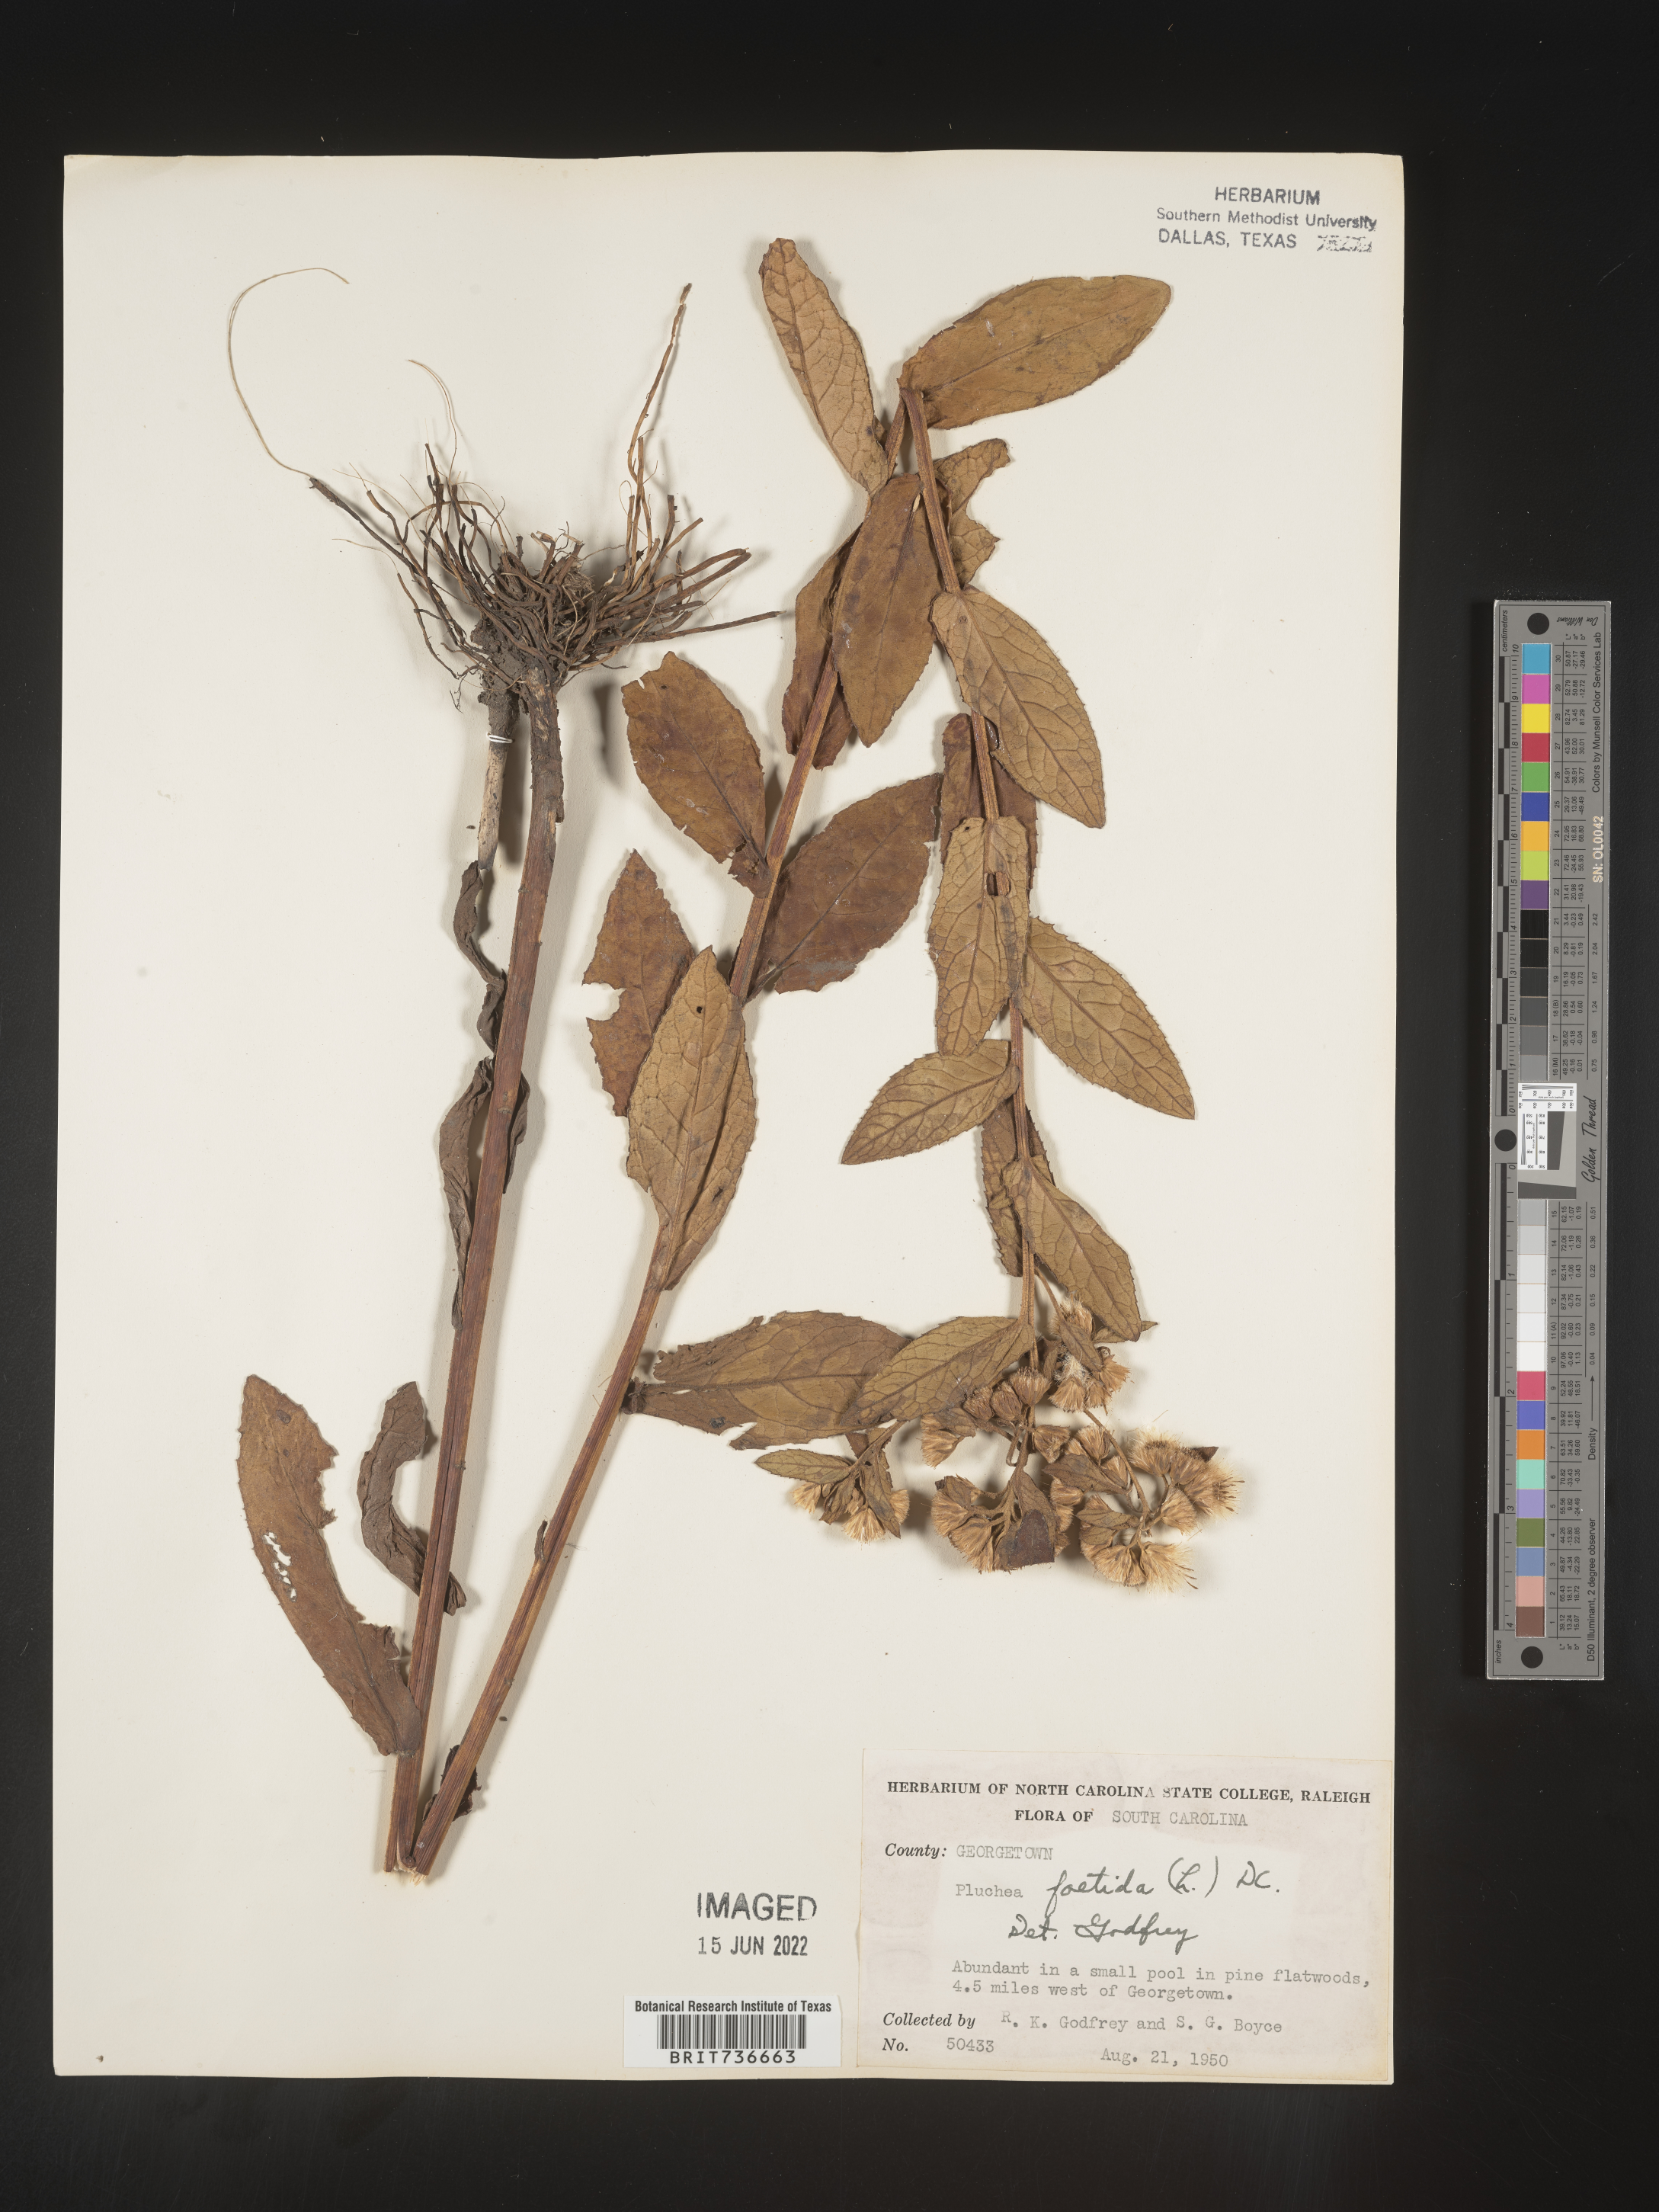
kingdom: Plantae
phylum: Tracheophyta
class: Magnoliopsida
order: Asterales
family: Asteraceae
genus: Pluchea
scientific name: Pluchea foetida
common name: Stinking camphorweed
